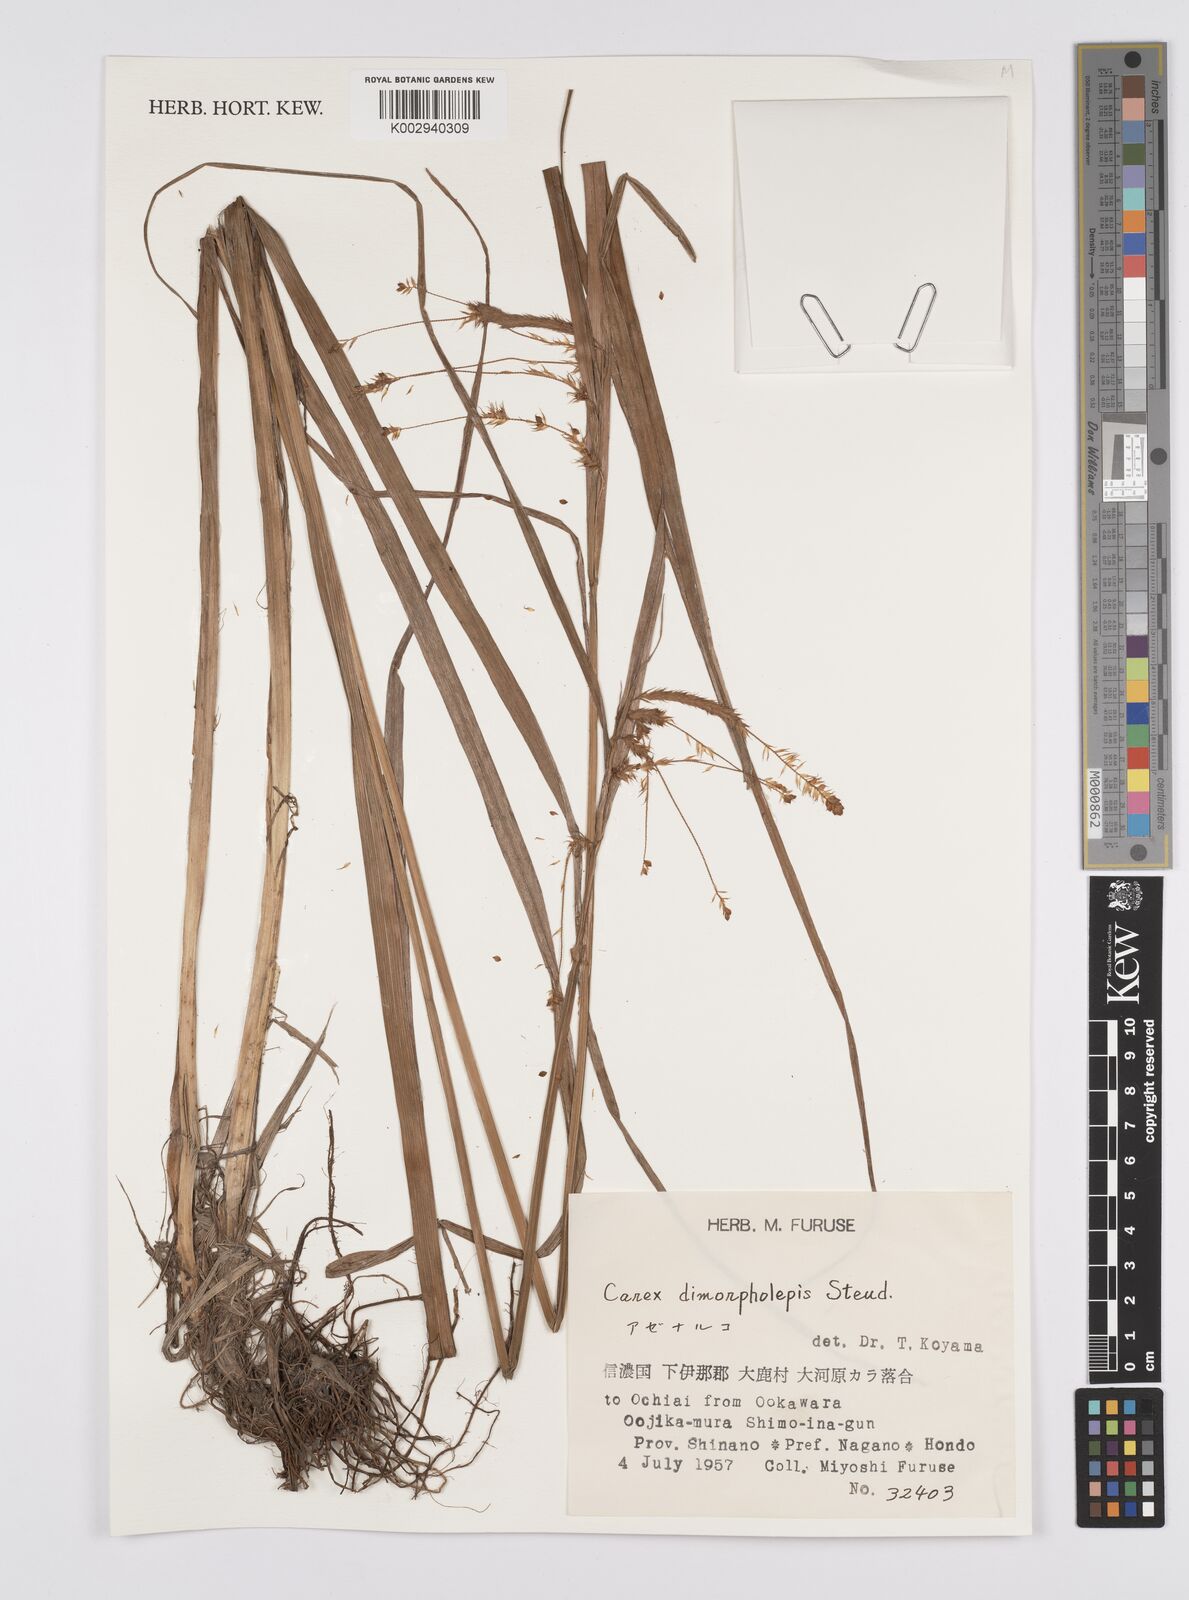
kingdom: Plantae
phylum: Tracheophyta
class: Liliopsida
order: Poales
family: Cyperaceae
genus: Carex
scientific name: Carex dimorpholepis
